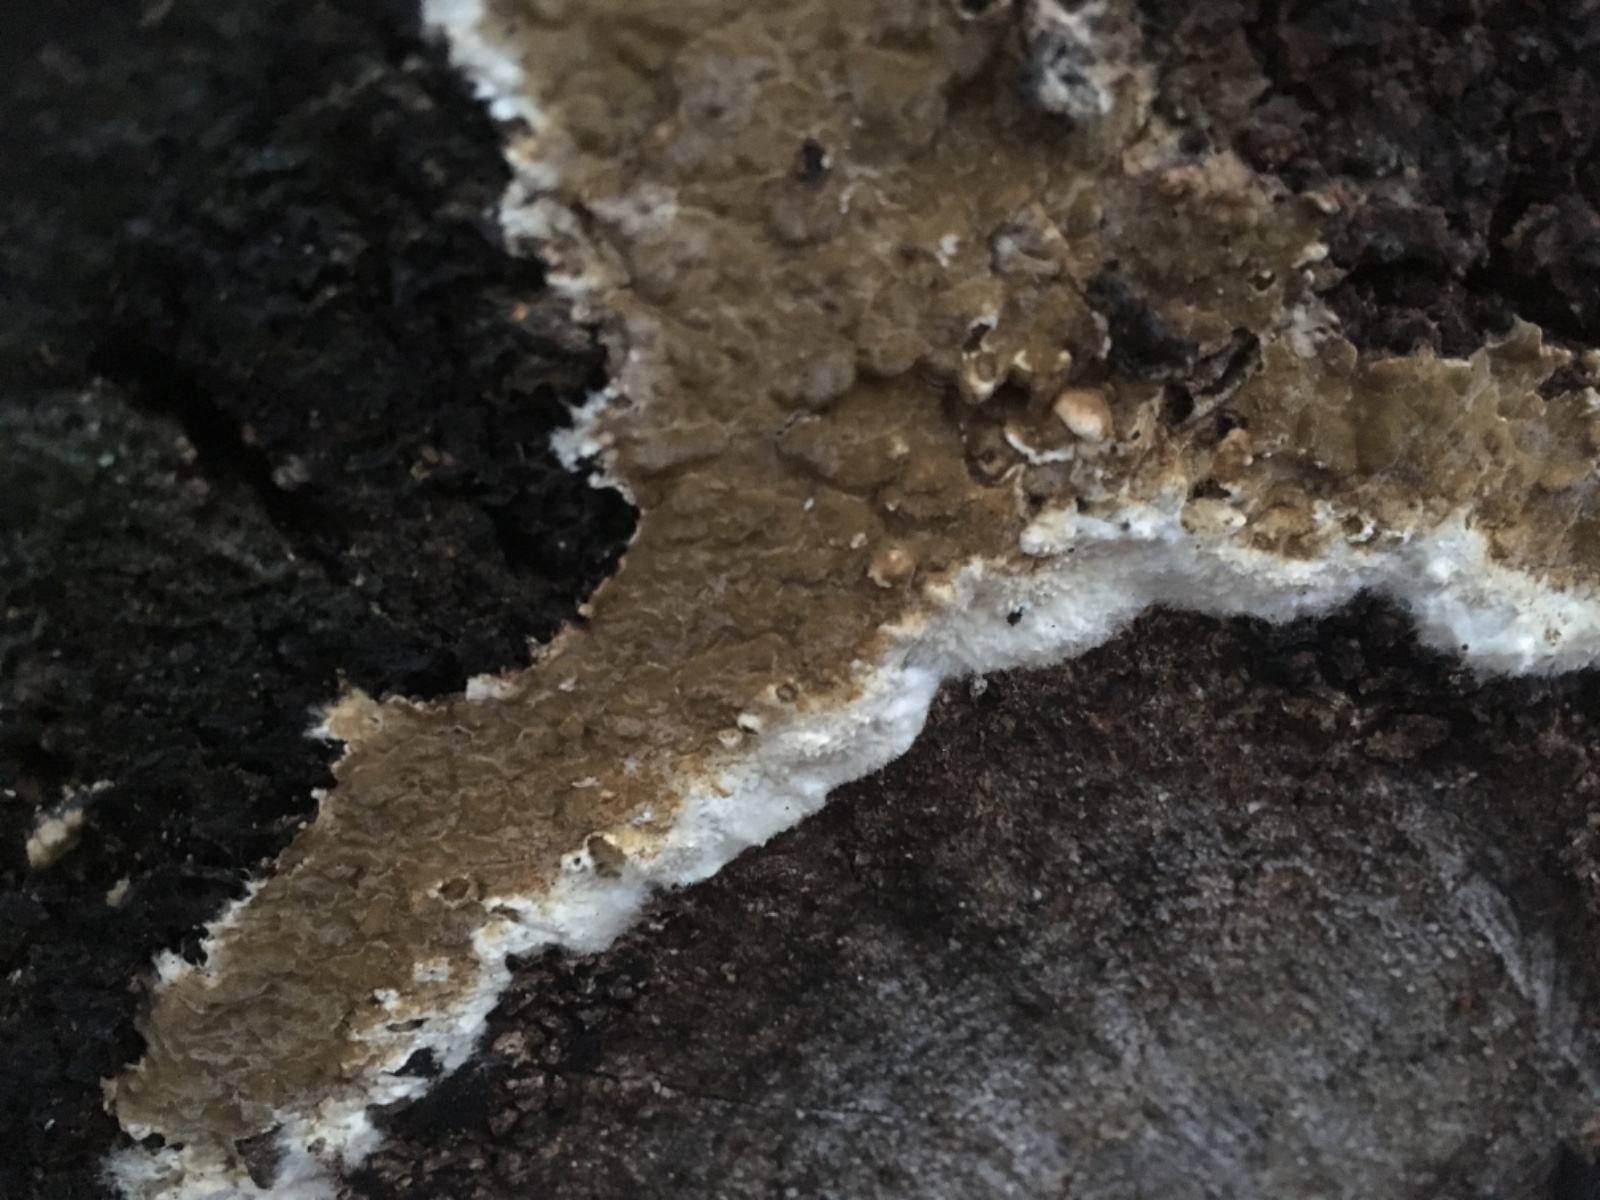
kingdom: Fungi
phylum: Basidiomycota
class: Agaricomycetes
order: Boletales
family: Coniophoraceae
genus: Coniophora
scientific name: Coniophora puteana
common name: gul tømmersvamp
